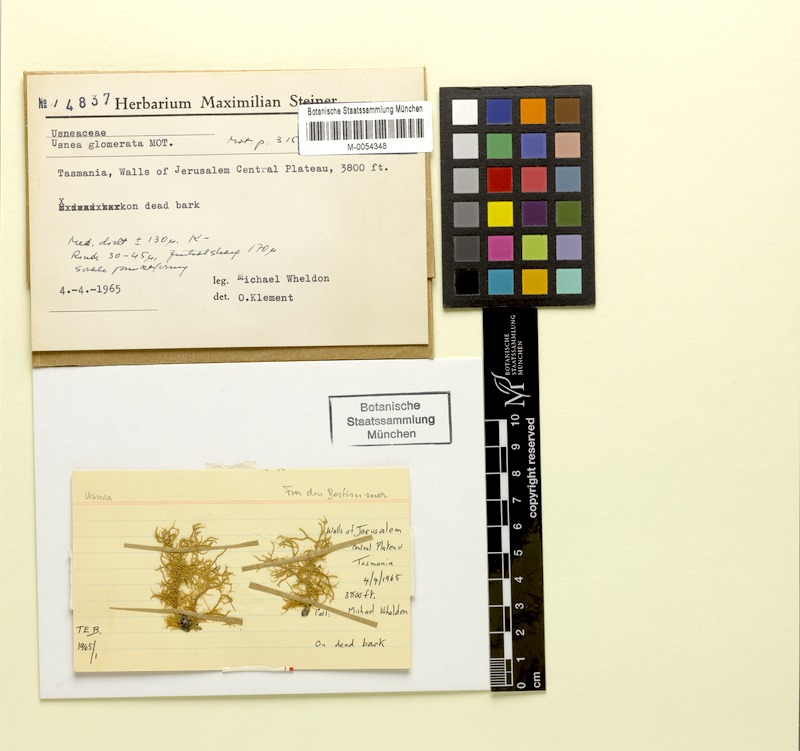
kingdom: Fungi
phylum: Ascomycota
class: Lecanoromycetes
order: Lecanorales
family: Parmeliaceae
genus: Usnea
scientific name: Usnea torulosa
